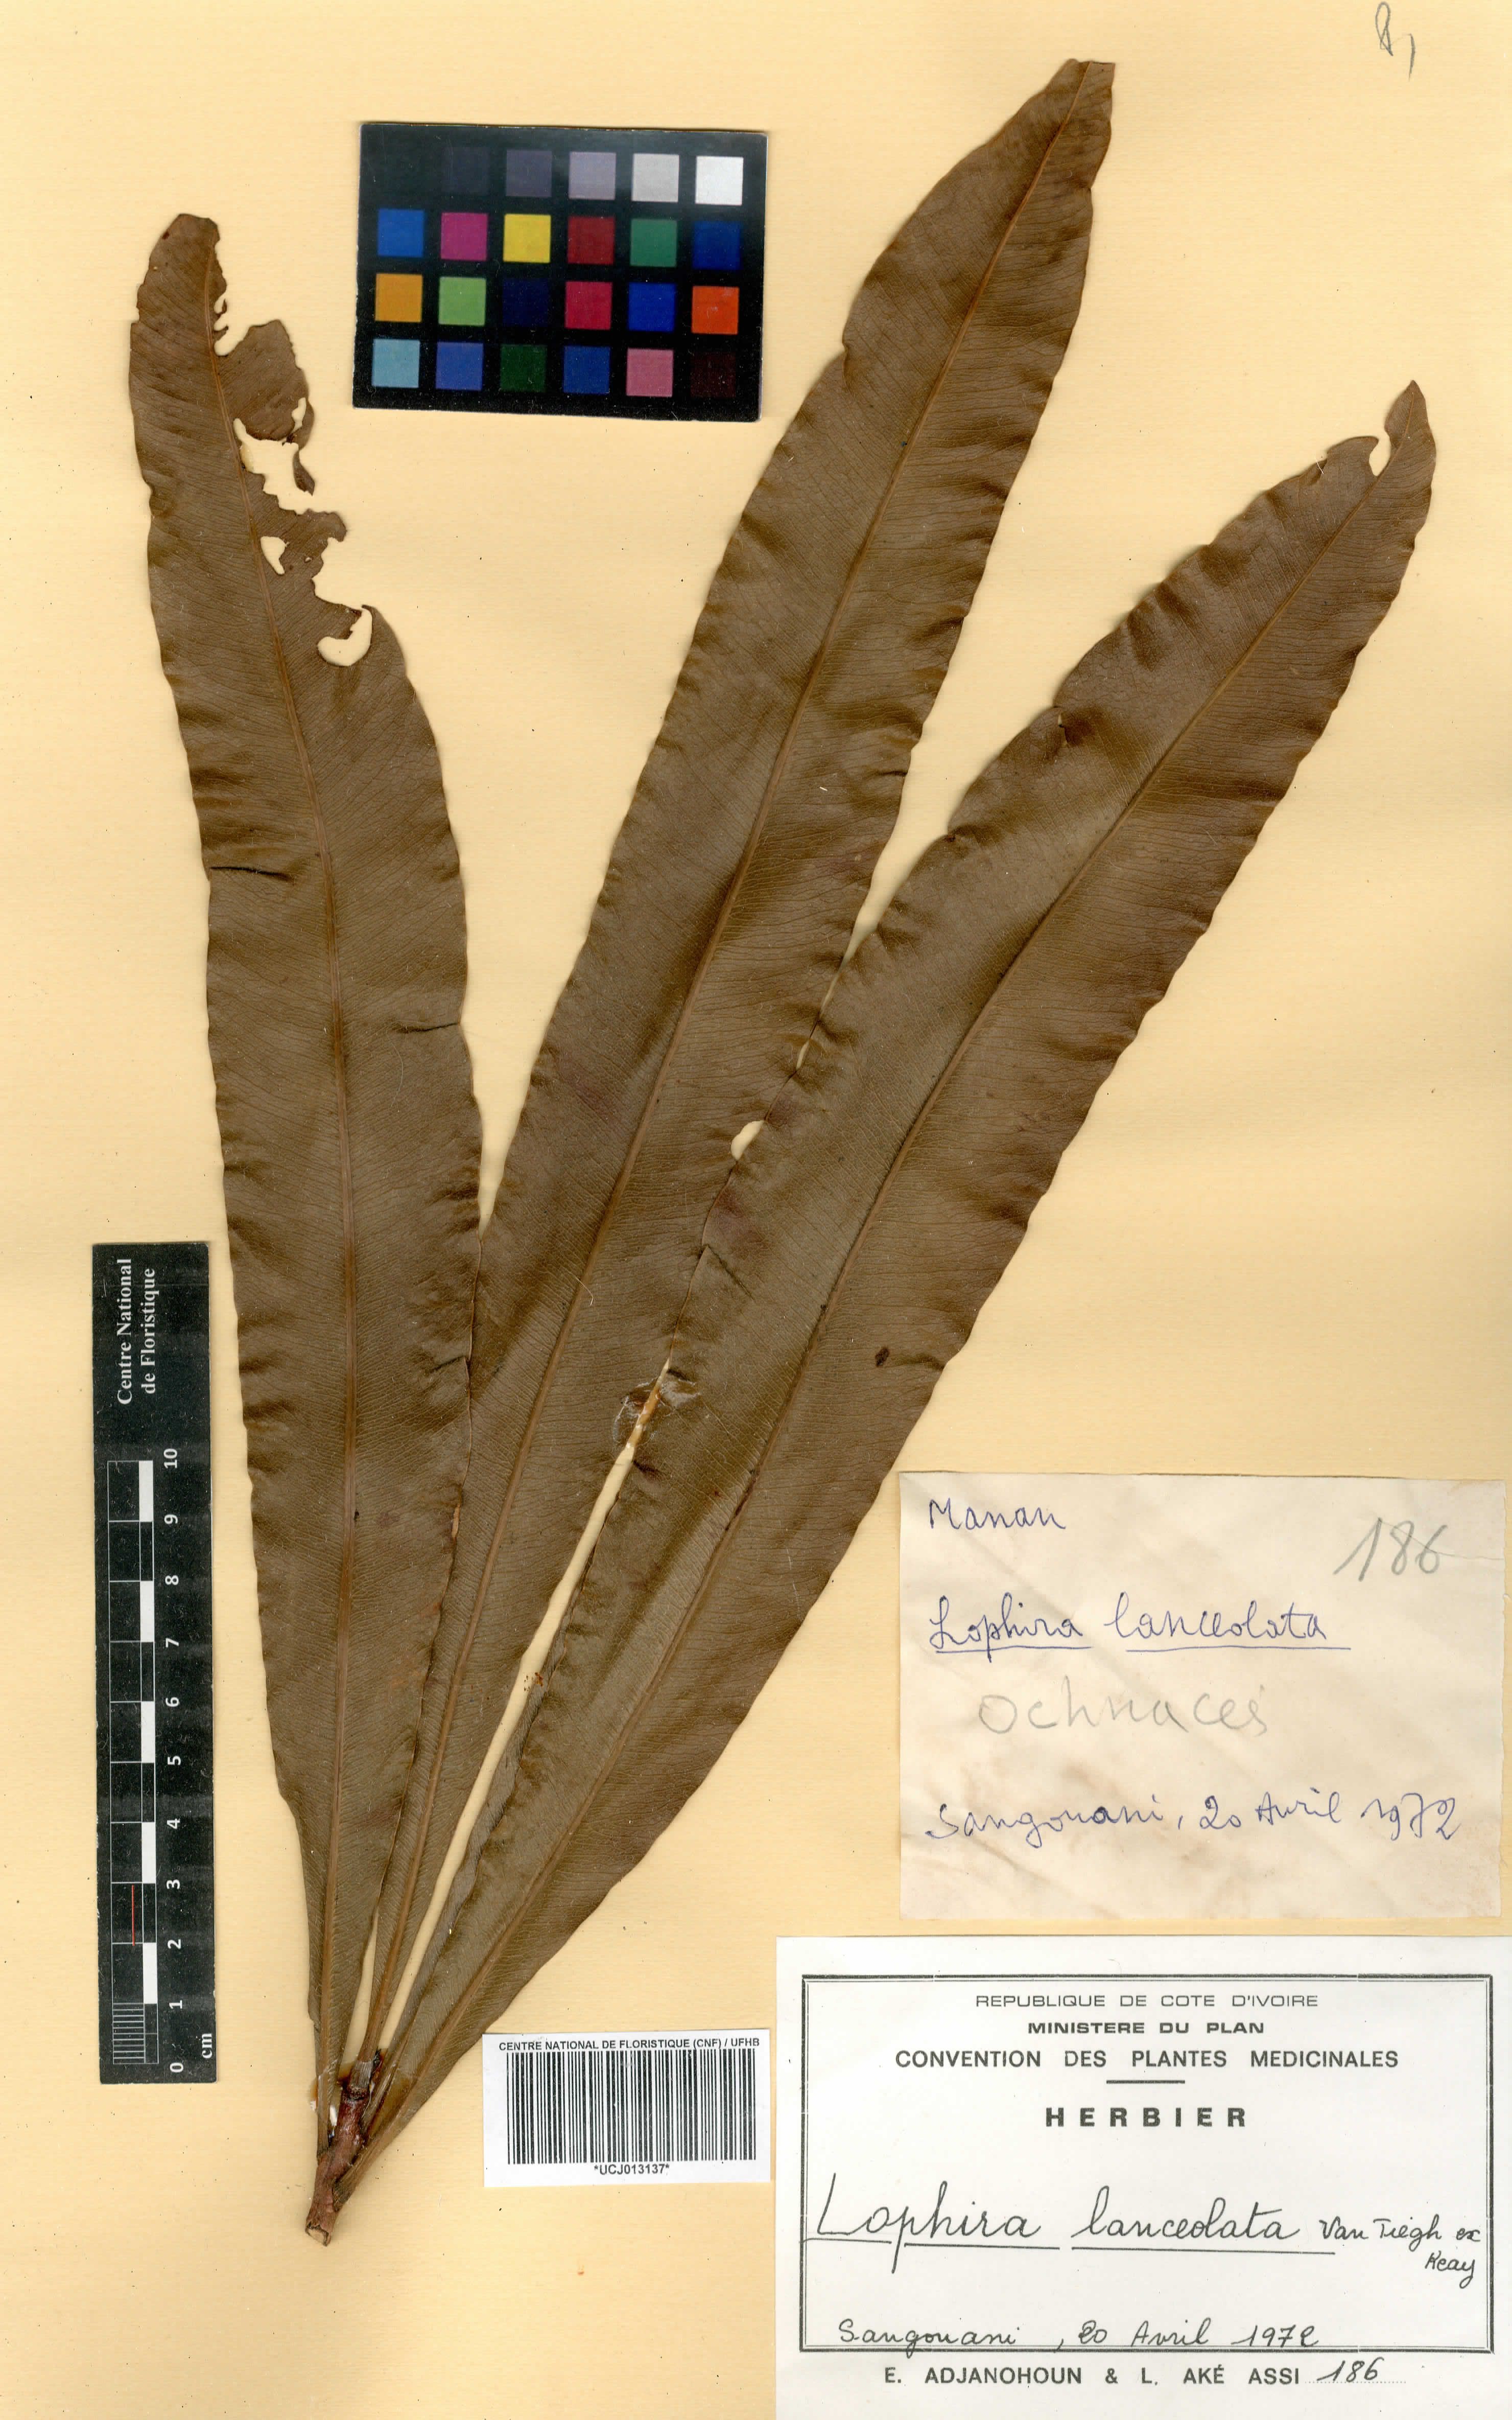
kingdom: Plantae
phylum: Tracheophyta
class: Magnoliopsida
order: Malpighiales
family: Ochnaceae
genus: Lophira
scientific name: Lophira lanceolata
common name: Dwarf red ironwood
